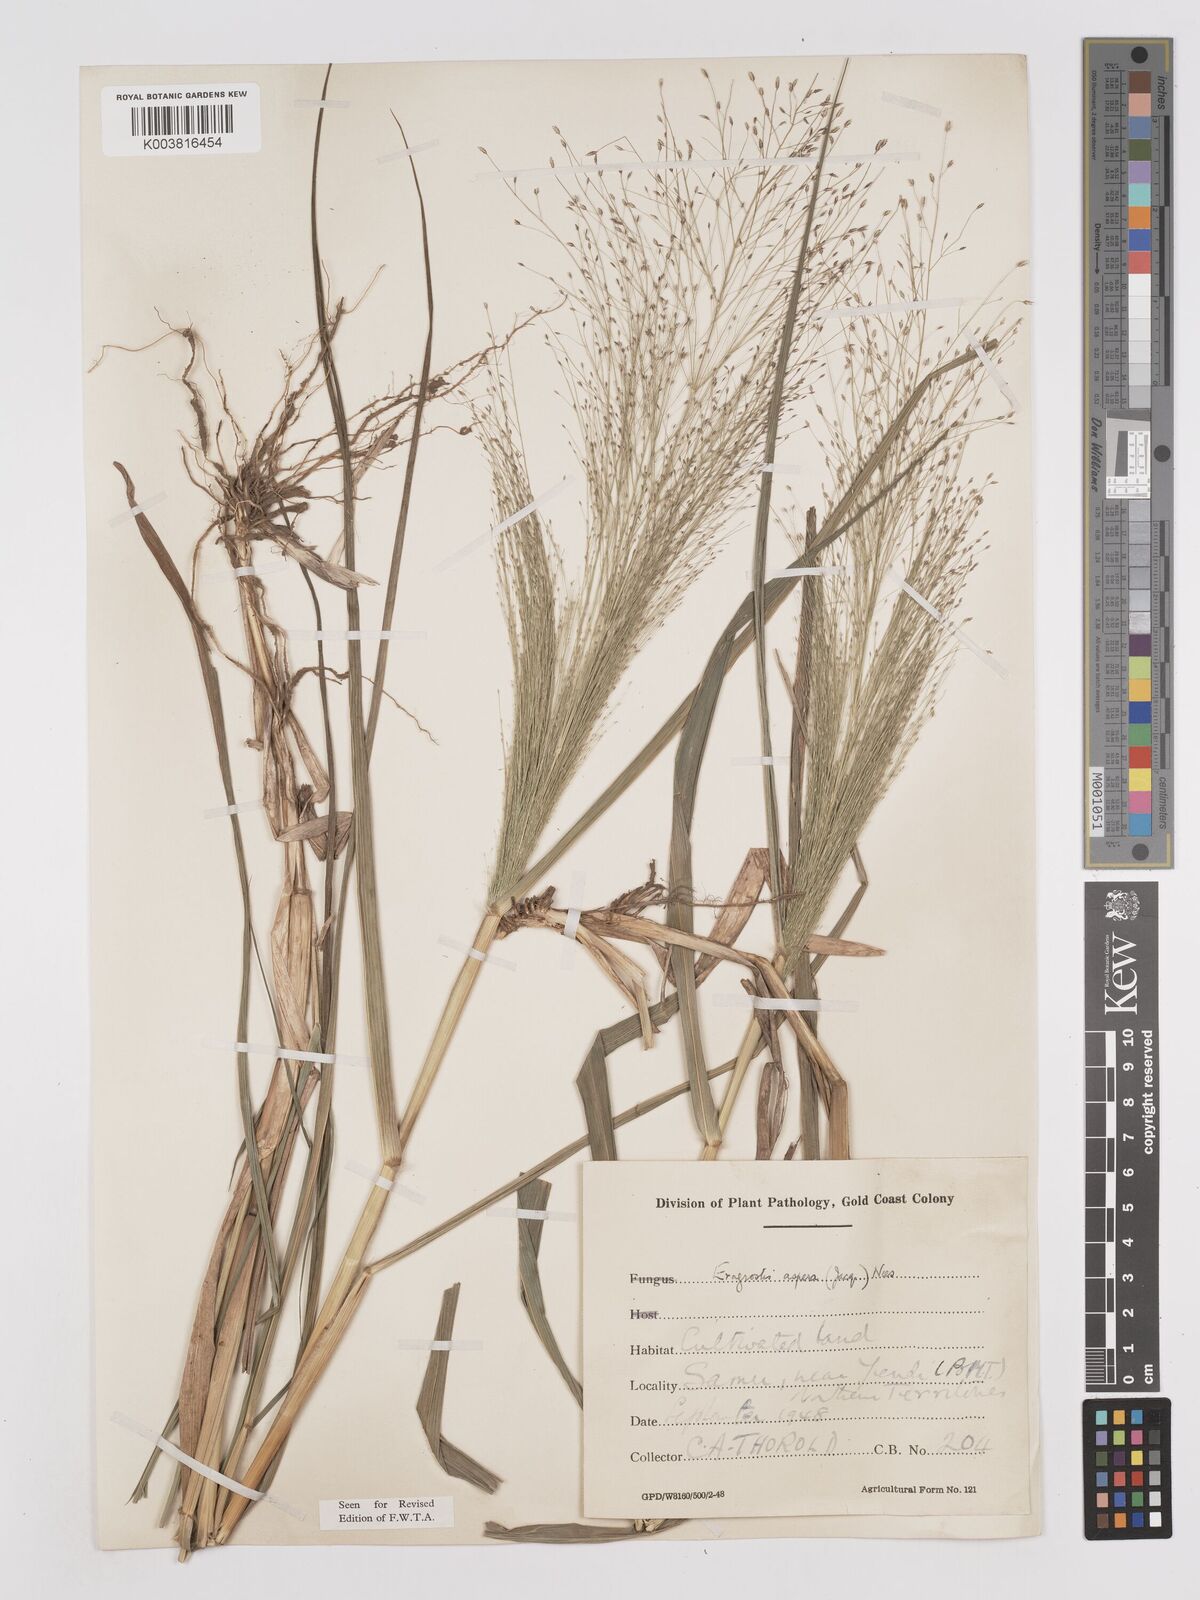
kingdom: Plantae
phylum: Tracheophyta
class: Liliopsida
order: Poales
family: Poaceae
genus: Eragrostis
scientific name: Eragrostis aspera
